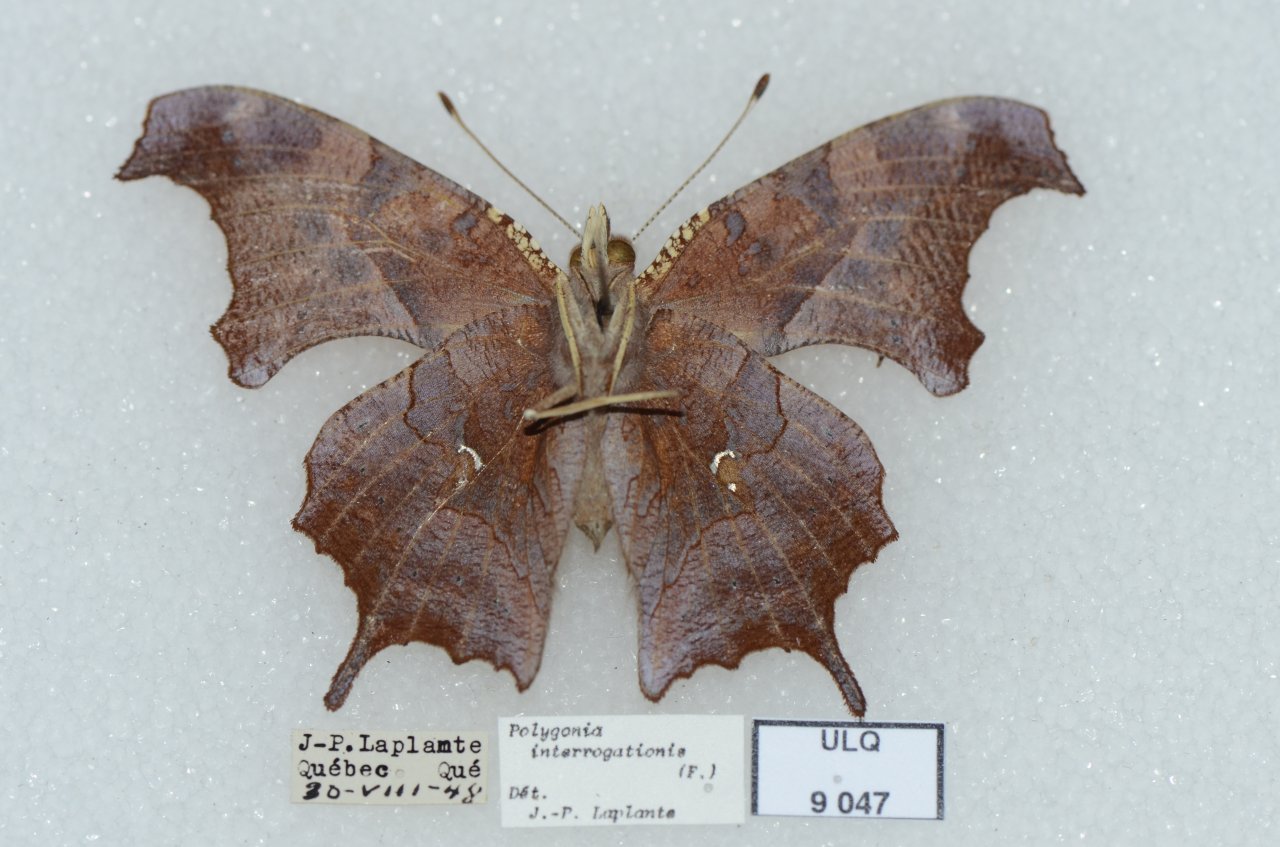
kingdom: Animalia
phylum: Arthropoda
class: Insecta
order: Lepidoptera
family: Nymphalidae
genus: Polygonia
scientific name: Polygonia interrogationis
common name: Question Mark
